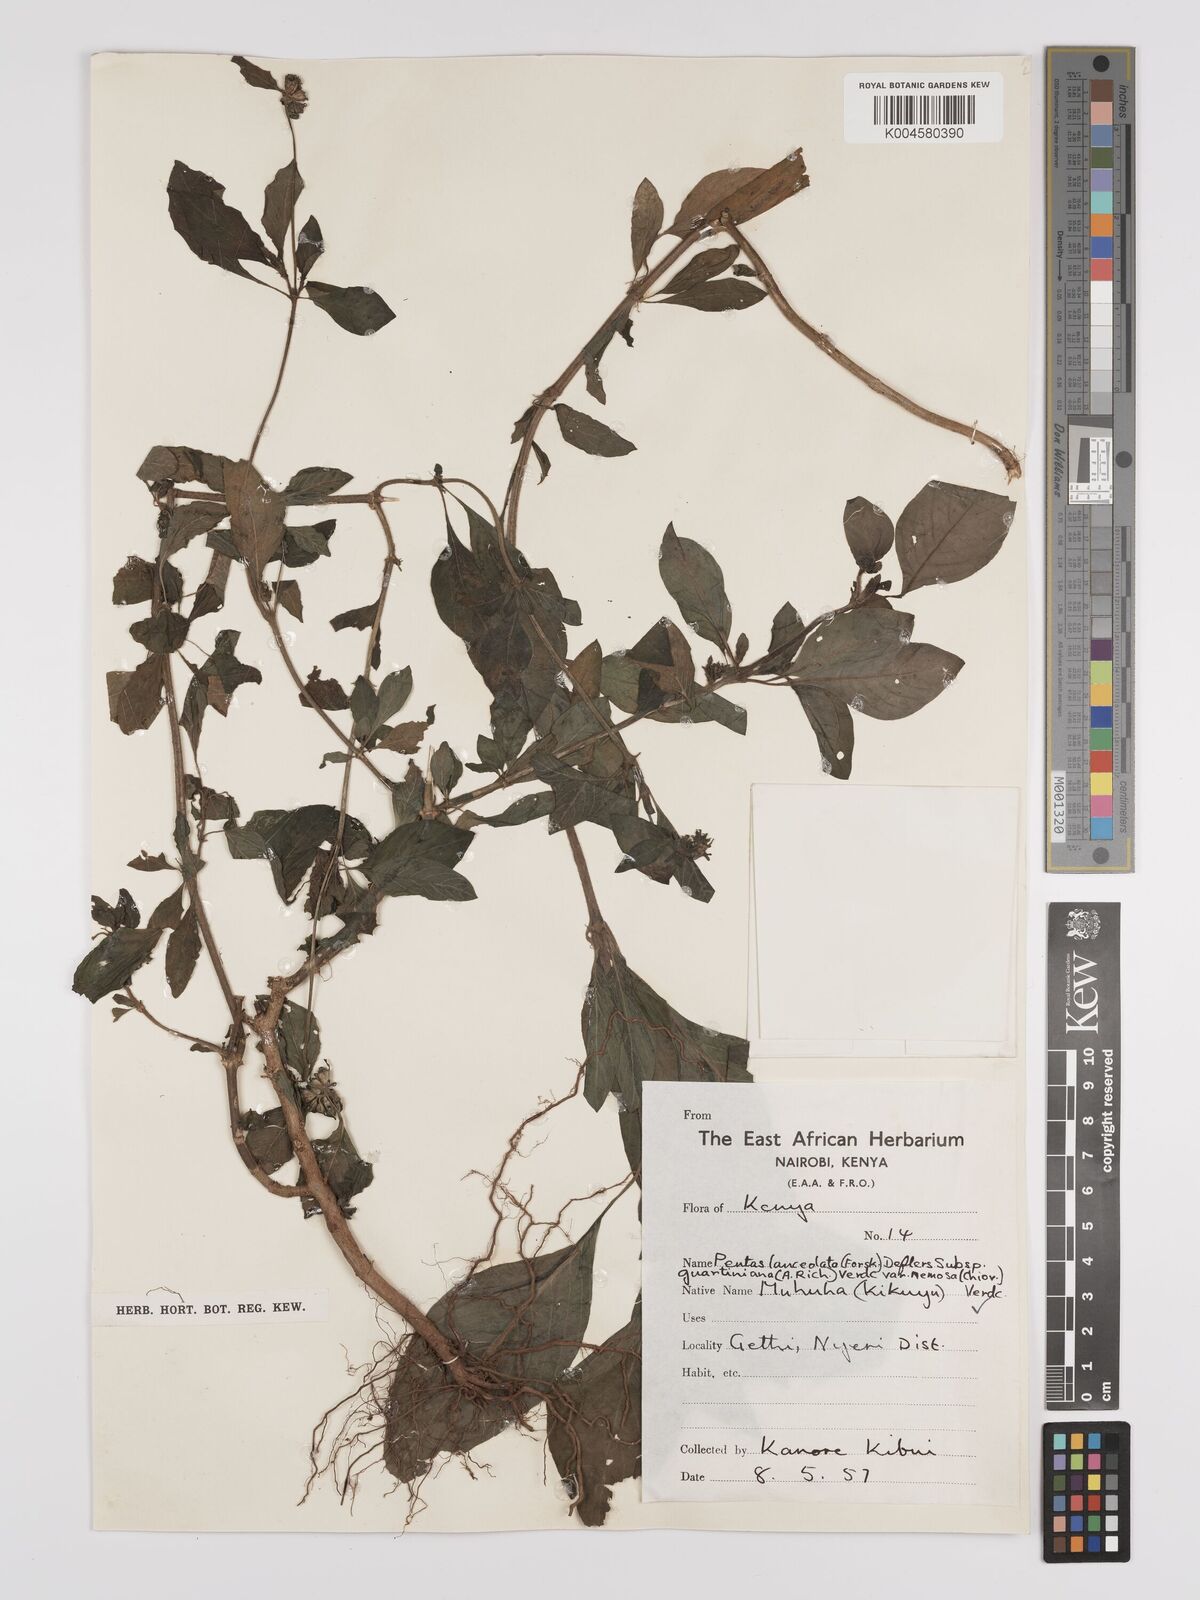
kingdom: Plantae
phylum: Tracheophyta
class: Magnoliopsida
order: Gentianales
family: Rubiaceae
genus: Pentas
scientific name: Pentas
